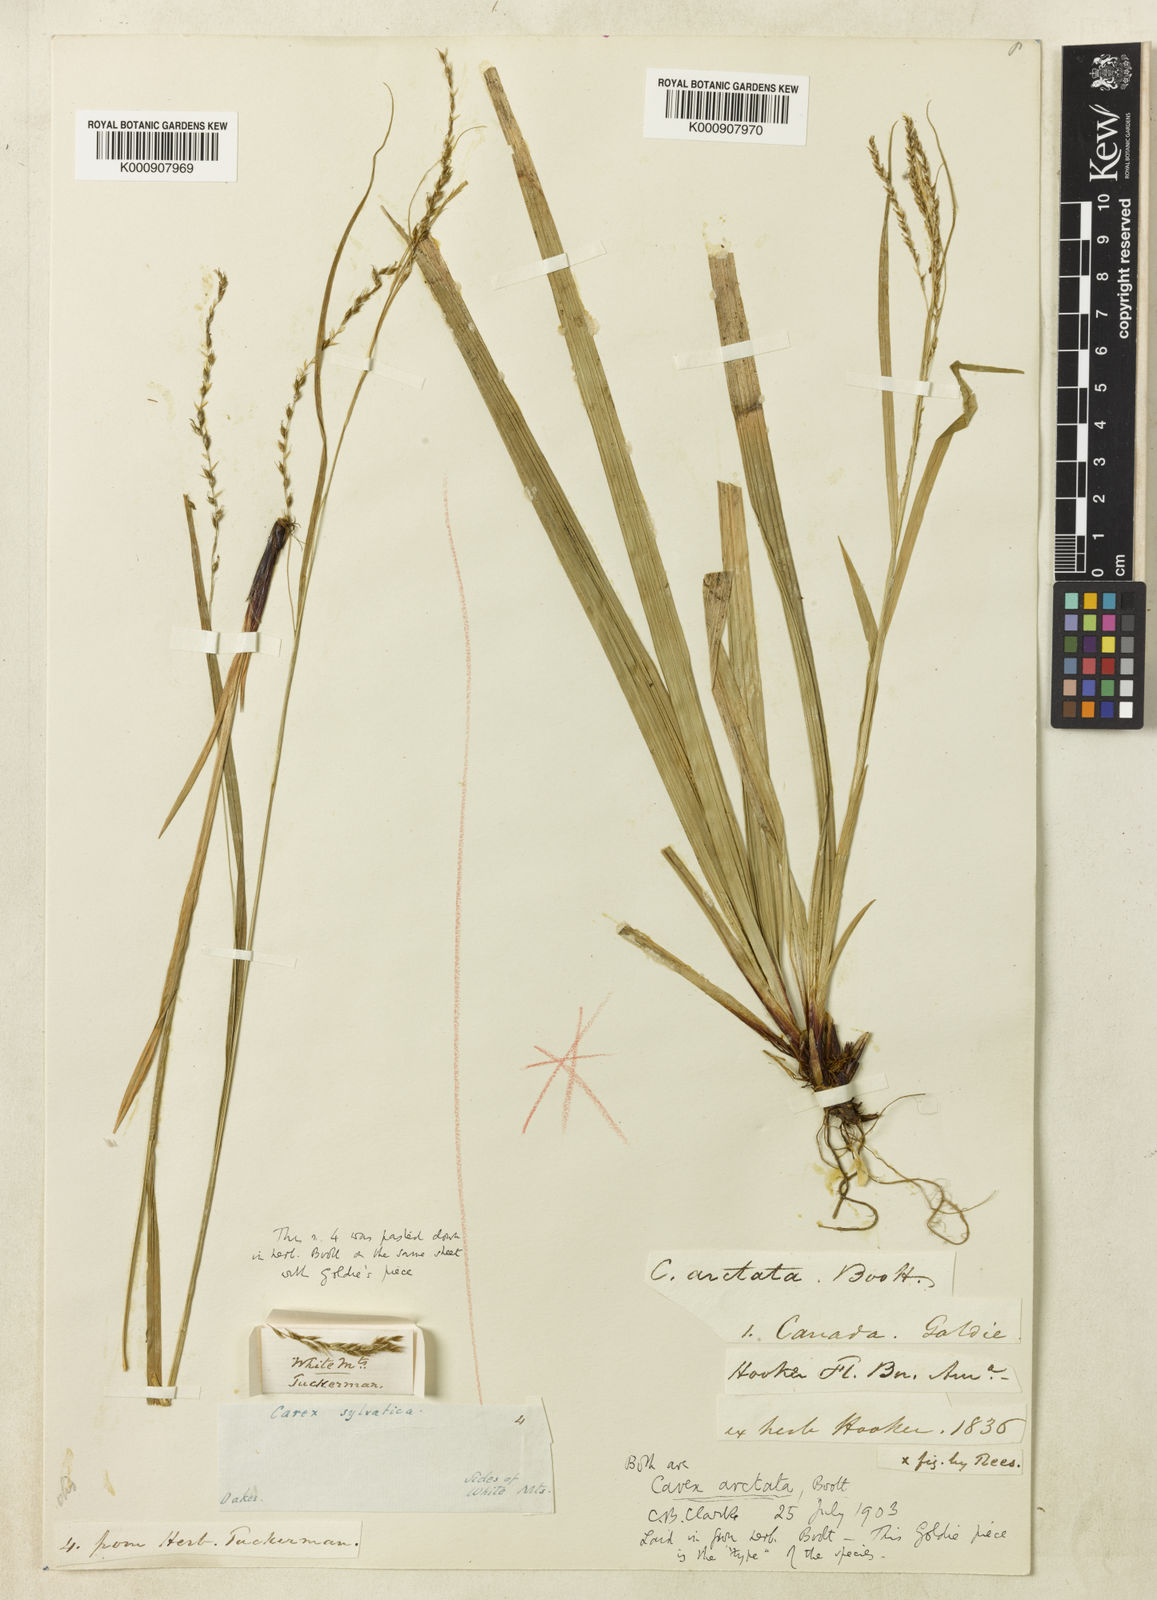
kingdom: Plantae
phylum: Tracheophyta
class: Liliopsida
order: Poales
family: Cyperaceae
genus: Carex
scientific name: Carex arctata
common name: Black sedge
